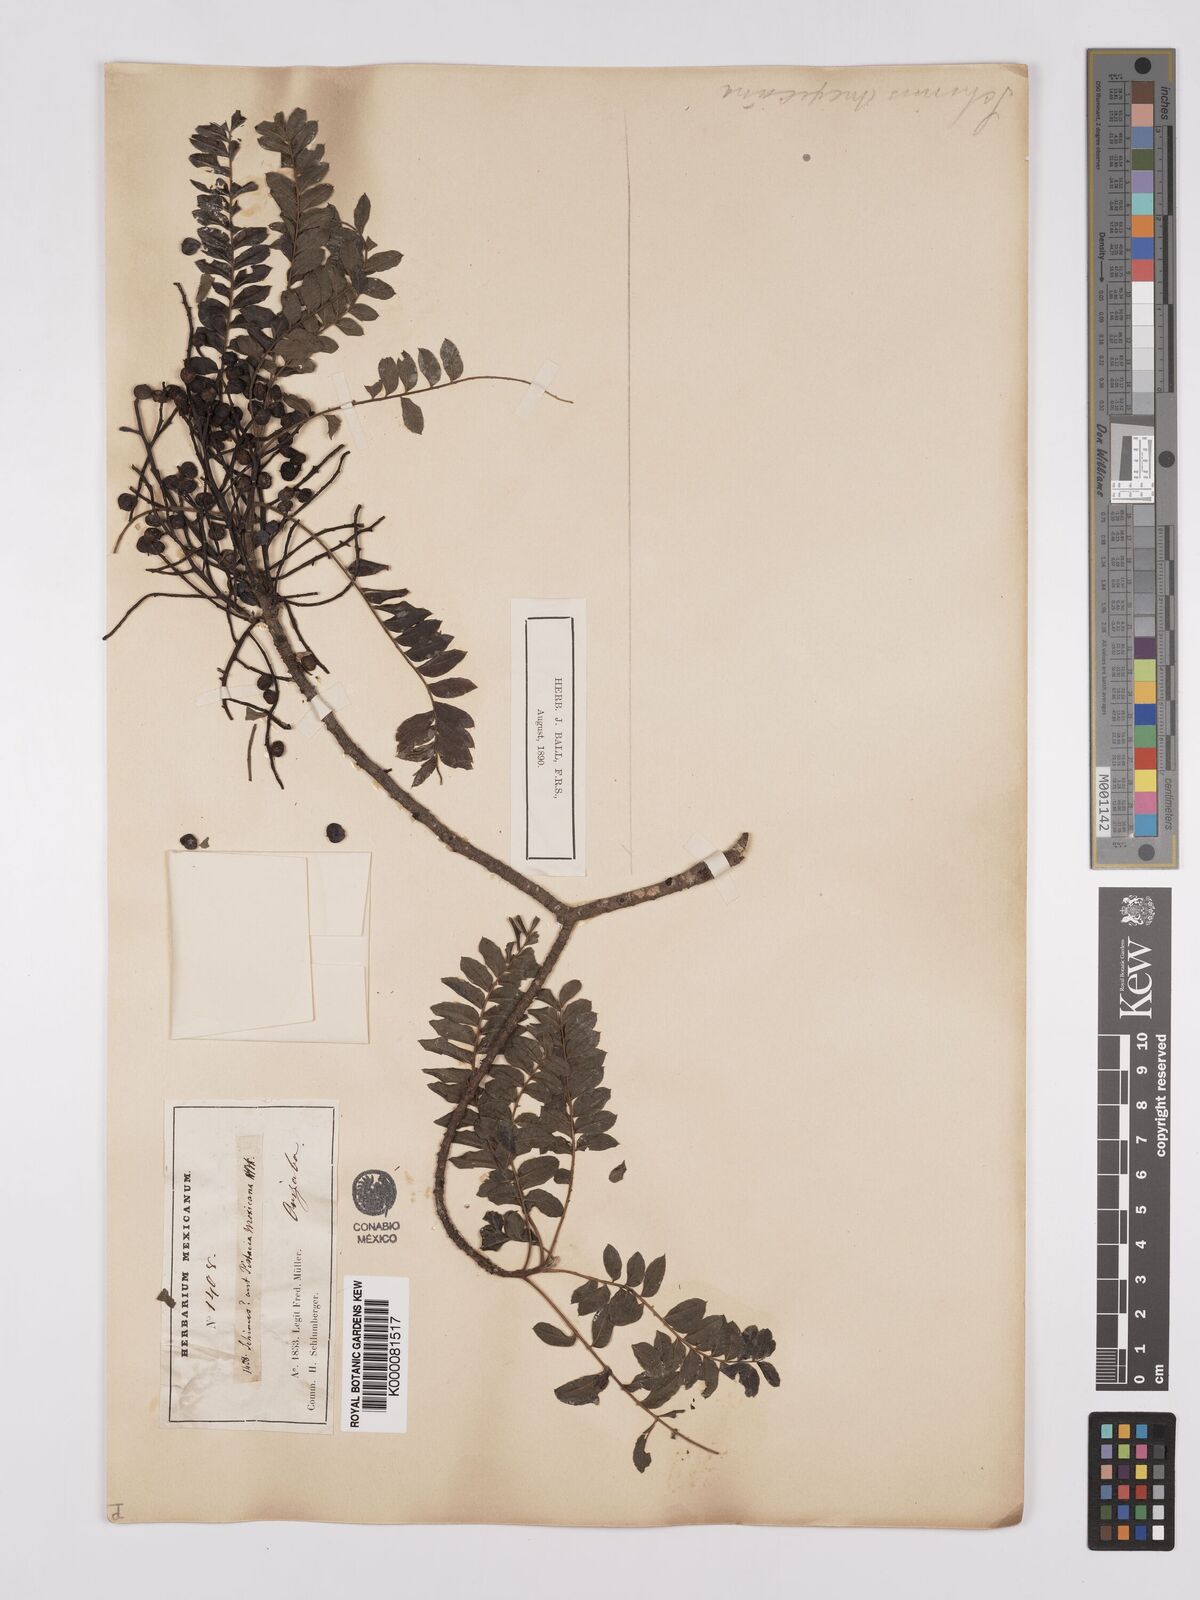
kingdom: Plantae
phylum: Tracheophyta
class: Magnoliopsida
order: Sapindales
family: Anacardiaceae
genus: Pistacia
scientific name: Pistacia mexicana
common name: Mexican pistachio
